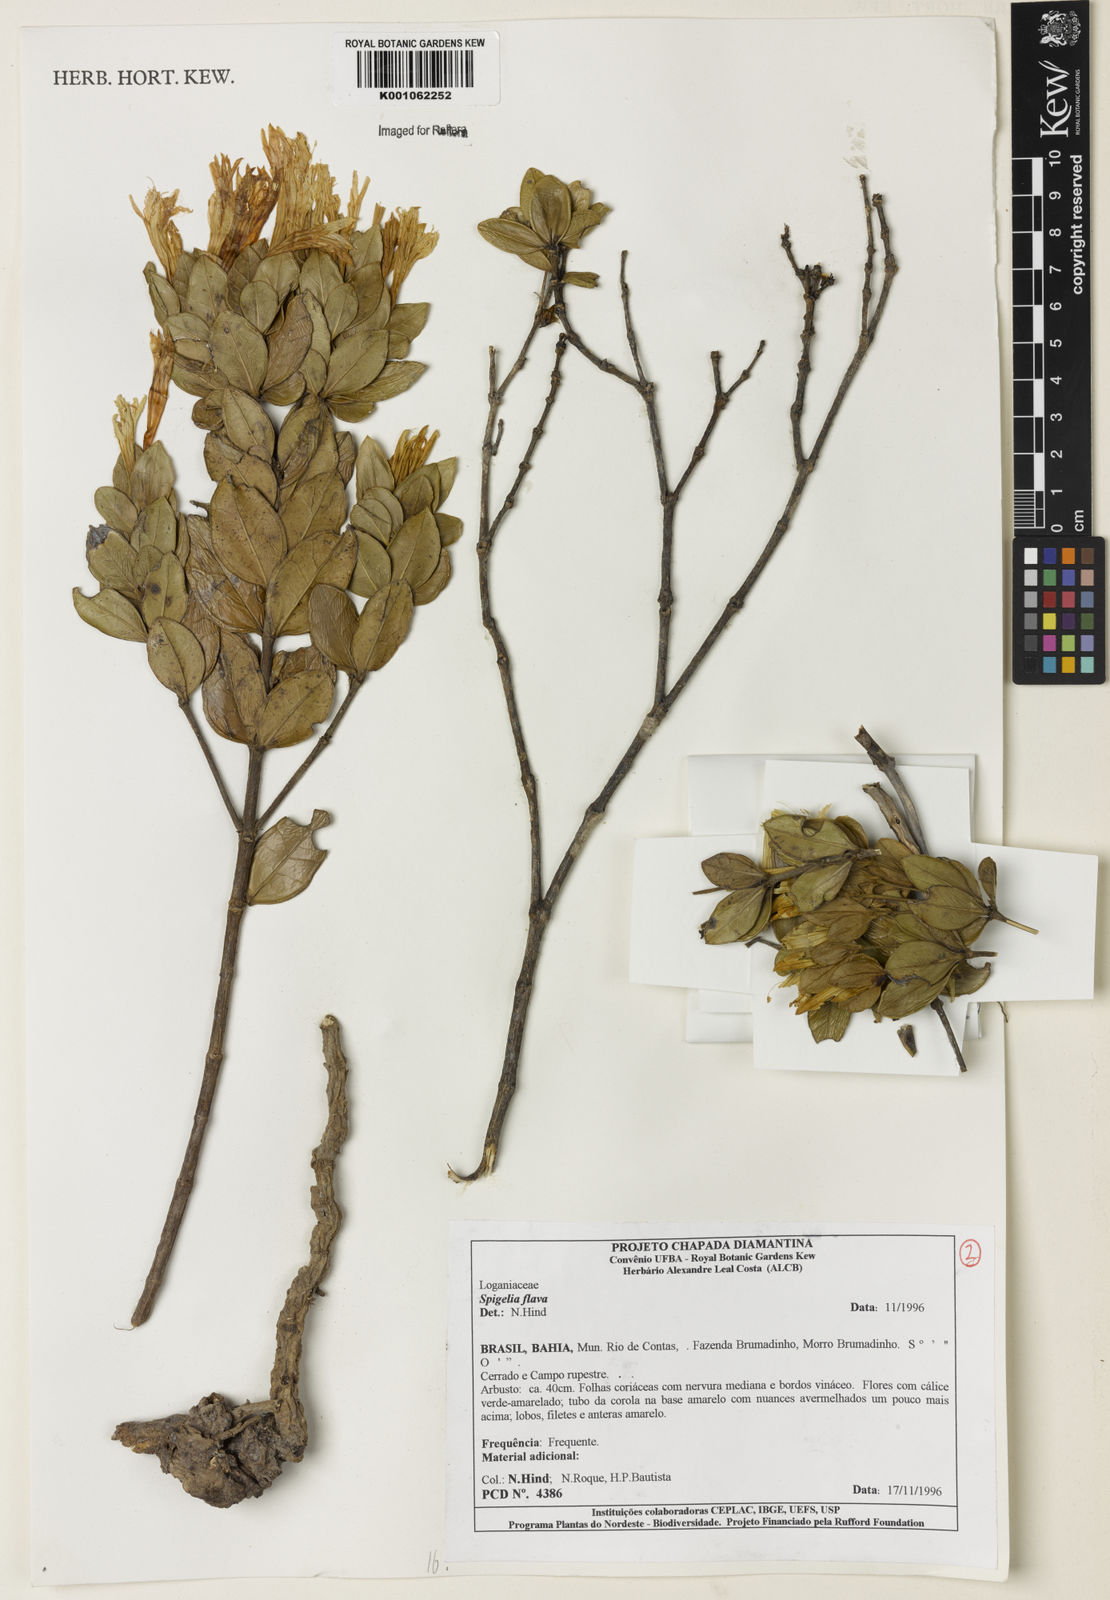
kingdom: Plantae
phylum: Tracheophyta
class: Magnoliopsida
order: Gentianales
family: Loganiaceae
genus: Spigelia
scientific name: Spigelia flava
